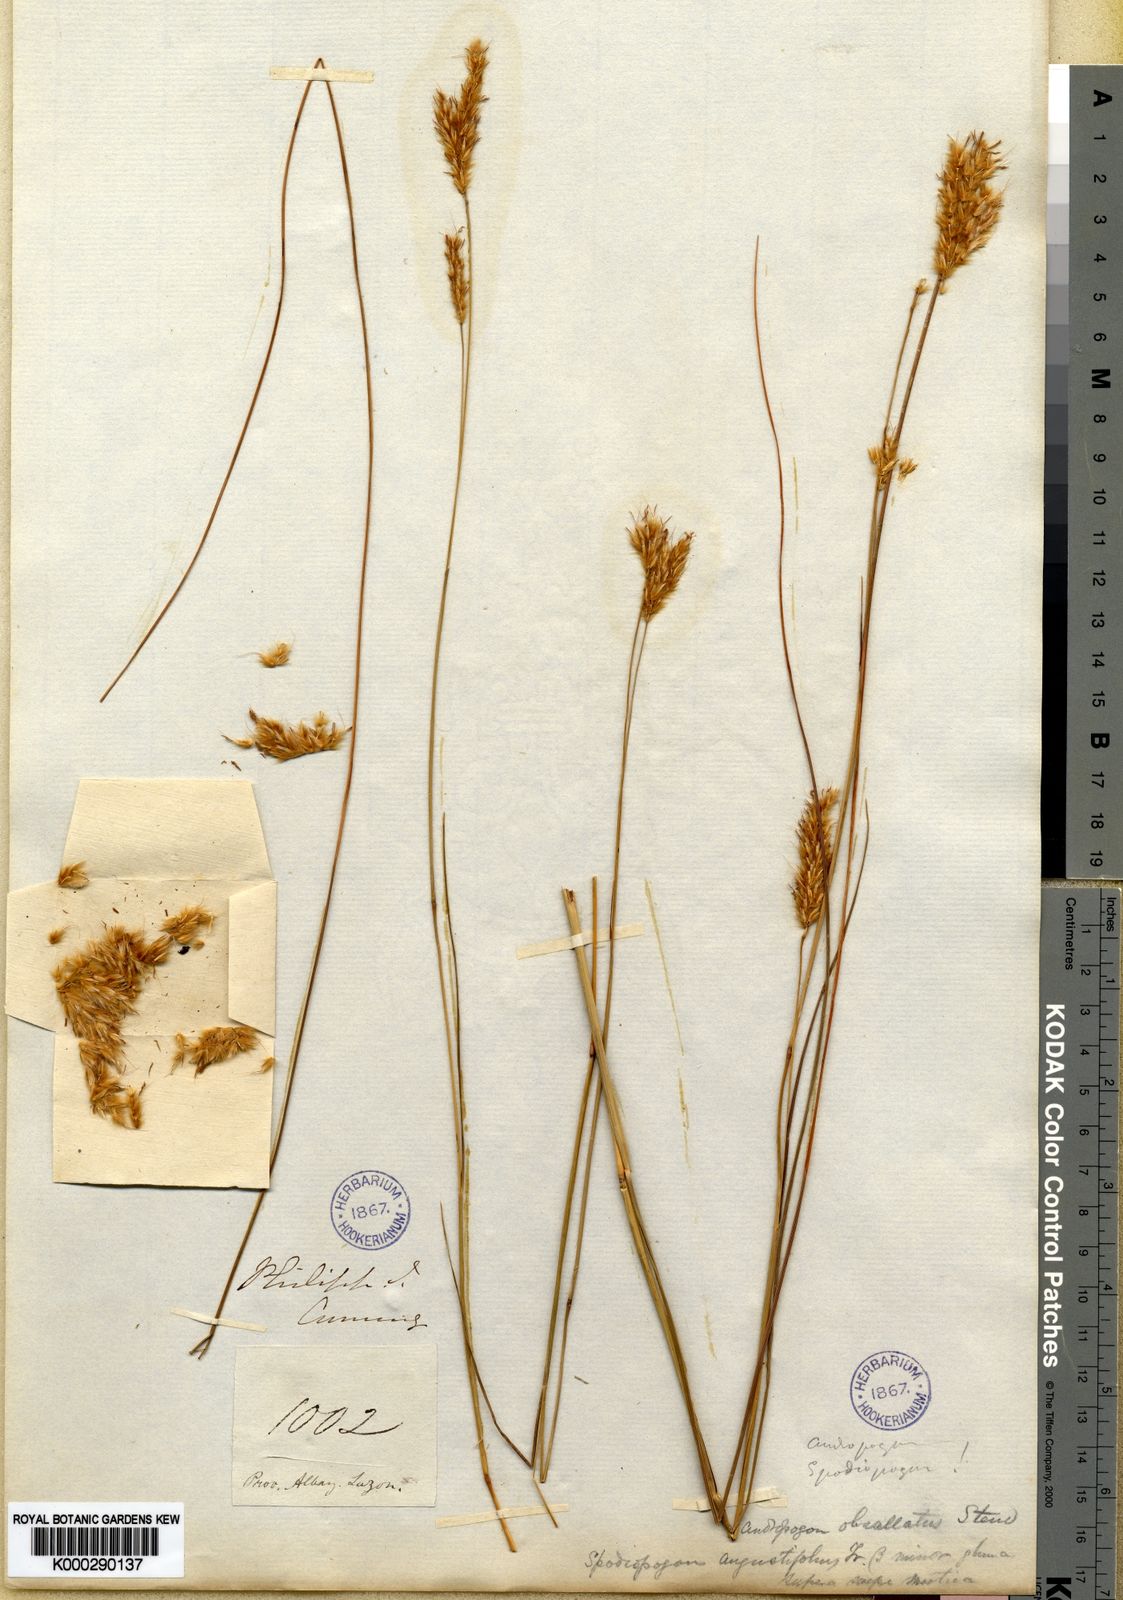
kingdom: Plantae
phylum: Tracheophyta
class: Liliopsida
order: Poales
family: Poaceae
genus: Eulaliopsis
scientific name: Eulaliopsis binata
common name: Baib grass
